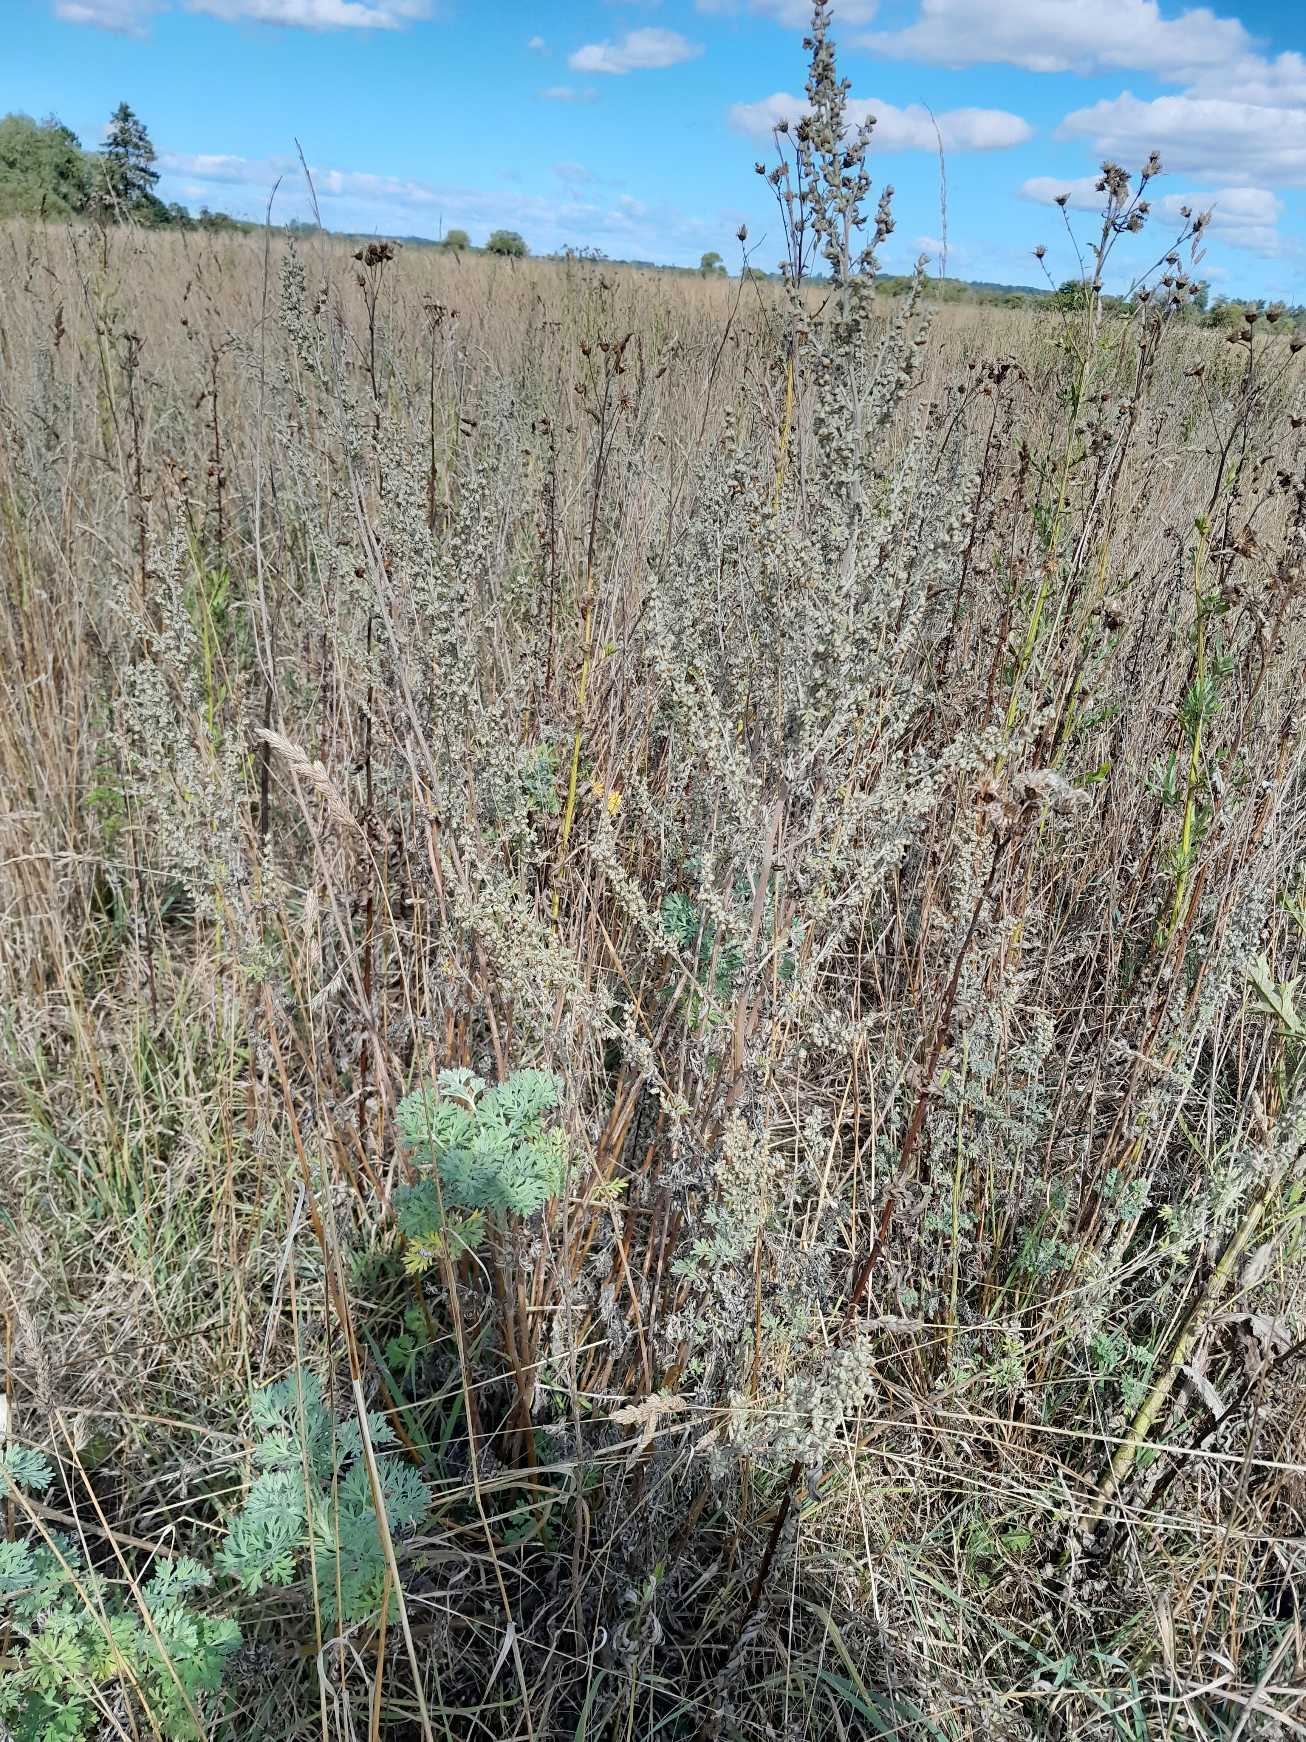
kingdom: Plantae
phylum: Tracheophyta
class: Magnoliopsida
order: Asterales
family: Asteraceae
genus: Artemisia
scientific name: Artemisia absinthium
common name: Havemalurt
